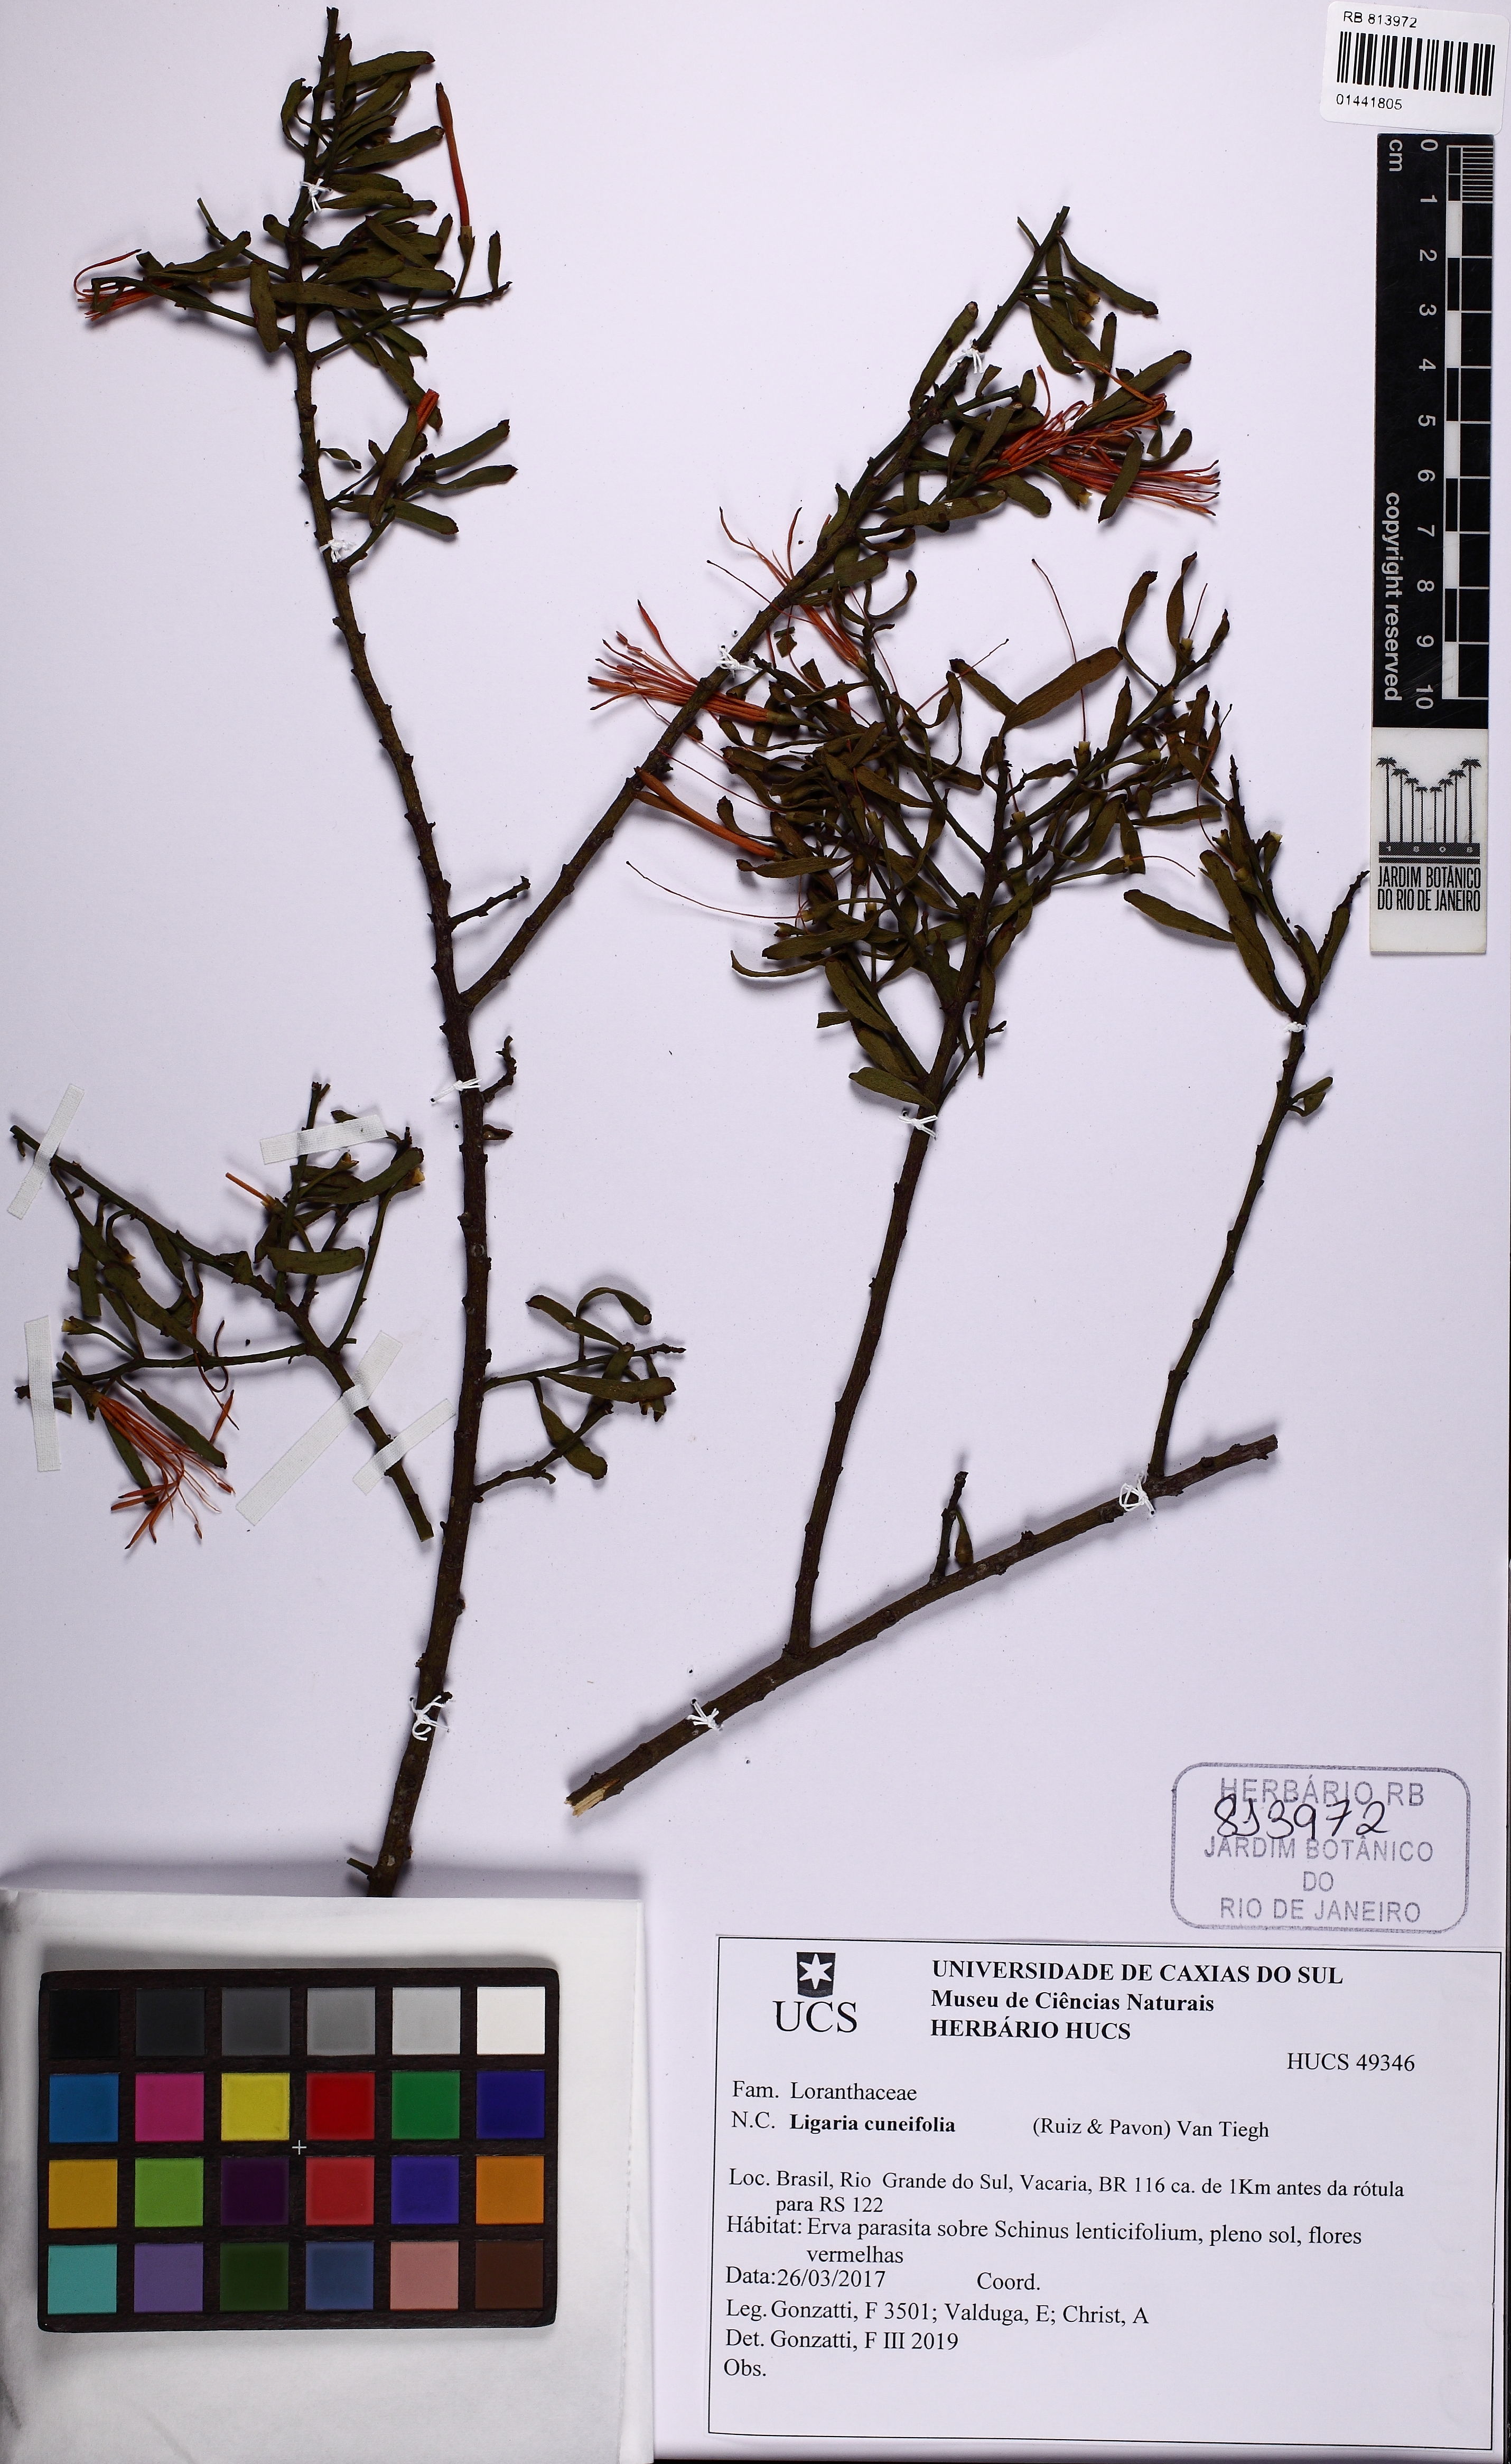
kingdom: Plantae
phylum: Tracheophyta
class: Magnoliopsida
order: Santalales
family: Loranthaceae
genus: Ligaria
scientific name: Ligaria cuneifolia
